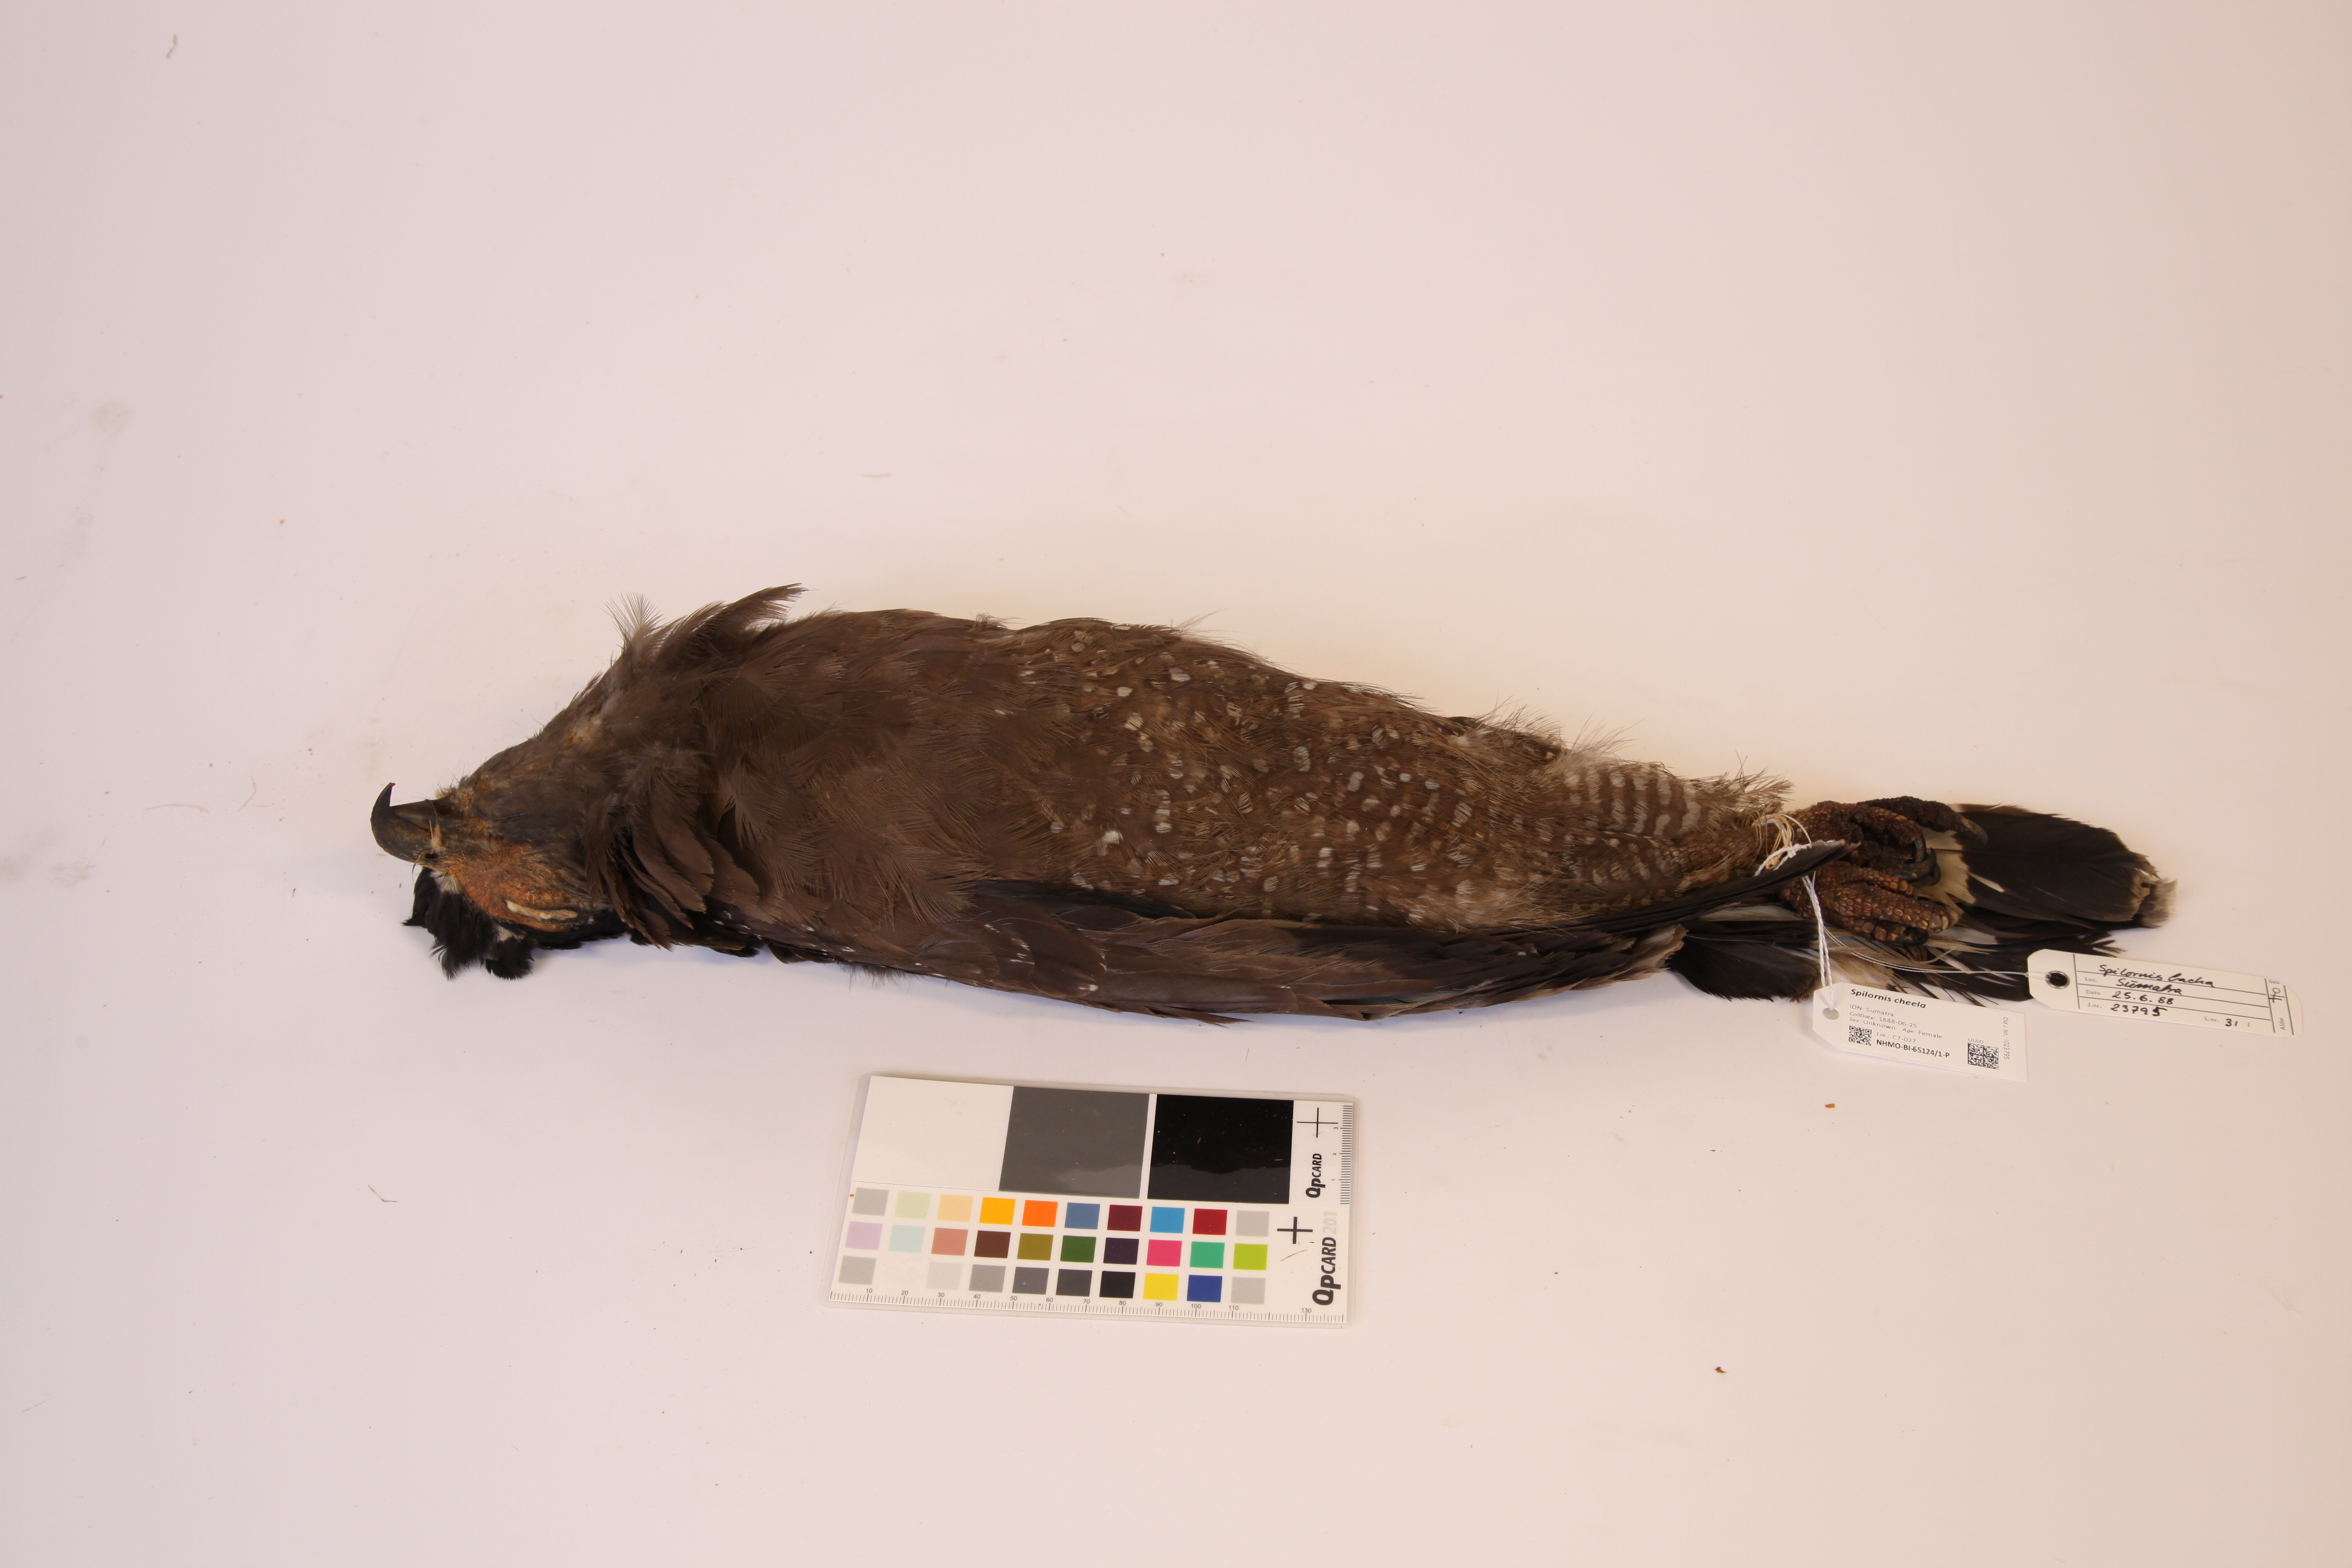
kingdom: Animalia
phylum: Chordata
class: Aves
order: Accipitriformes
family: Accipitridae
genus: Spilornis
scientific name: Spilornis cheela
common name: Crested serpent eagle
